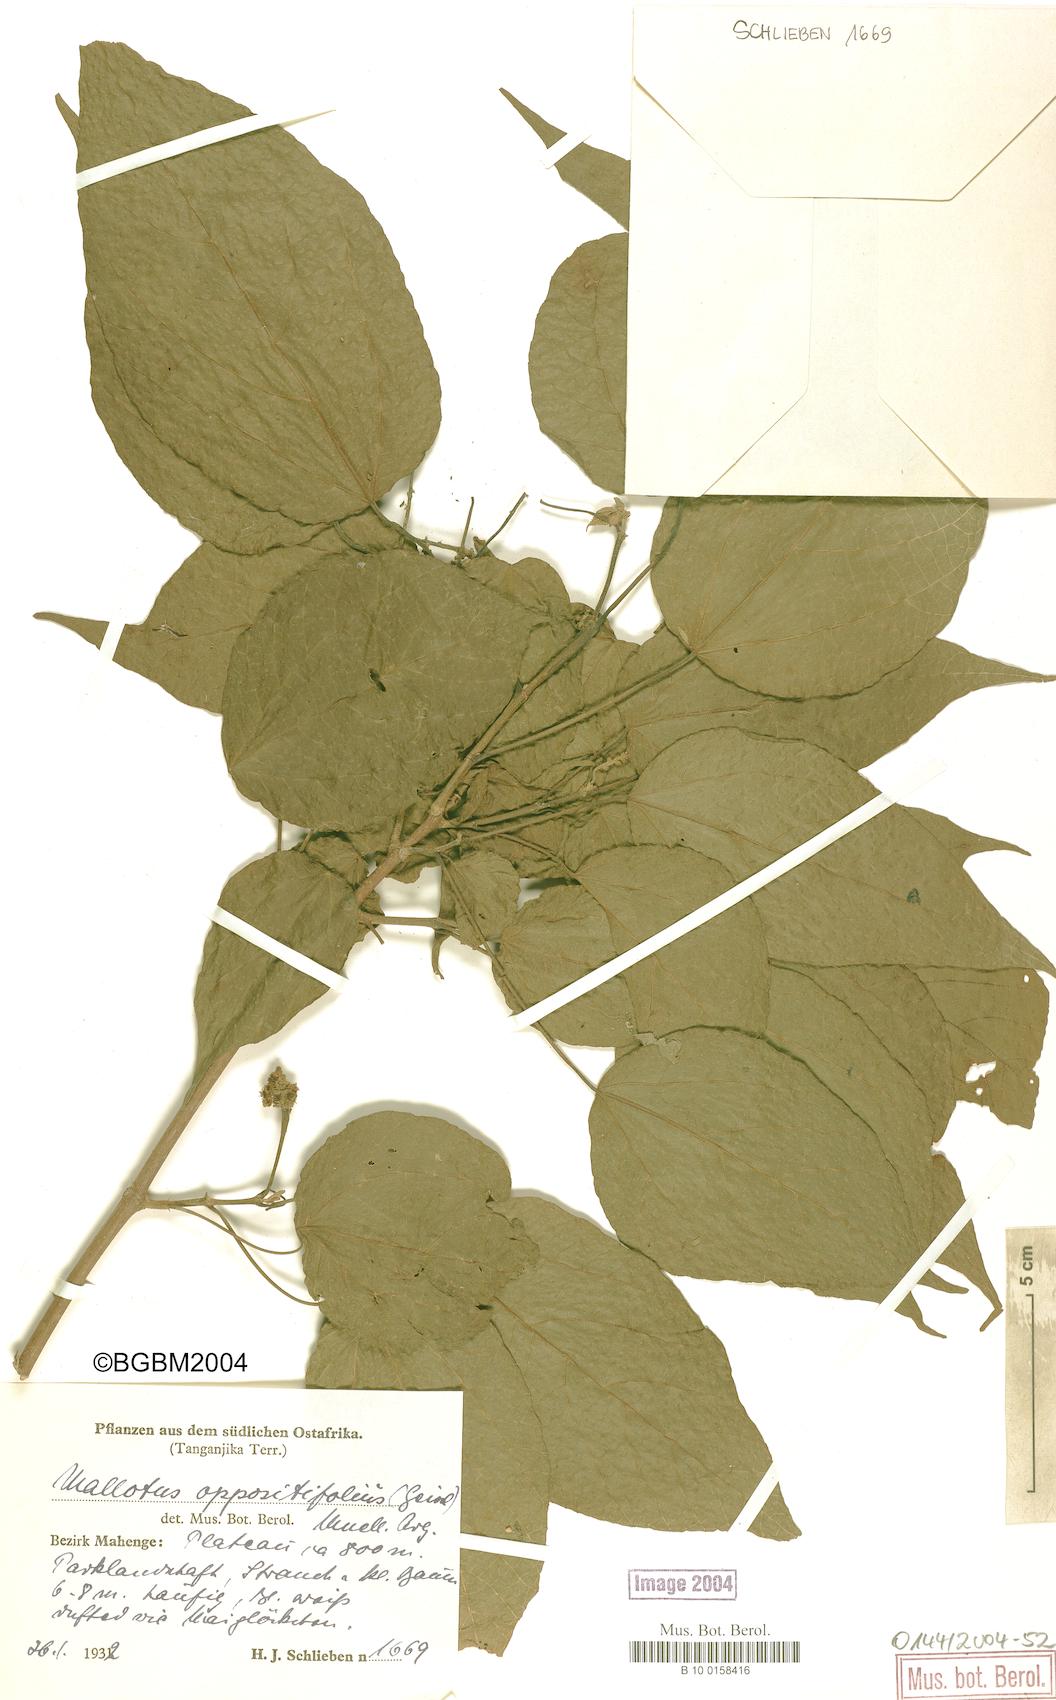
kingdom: Plantae
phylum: Tracheophyta
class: Magnoliopsida
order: Malpighiales
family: Euphorbiaceae
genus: Mallotus
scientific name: Mallotus oppositifolius
